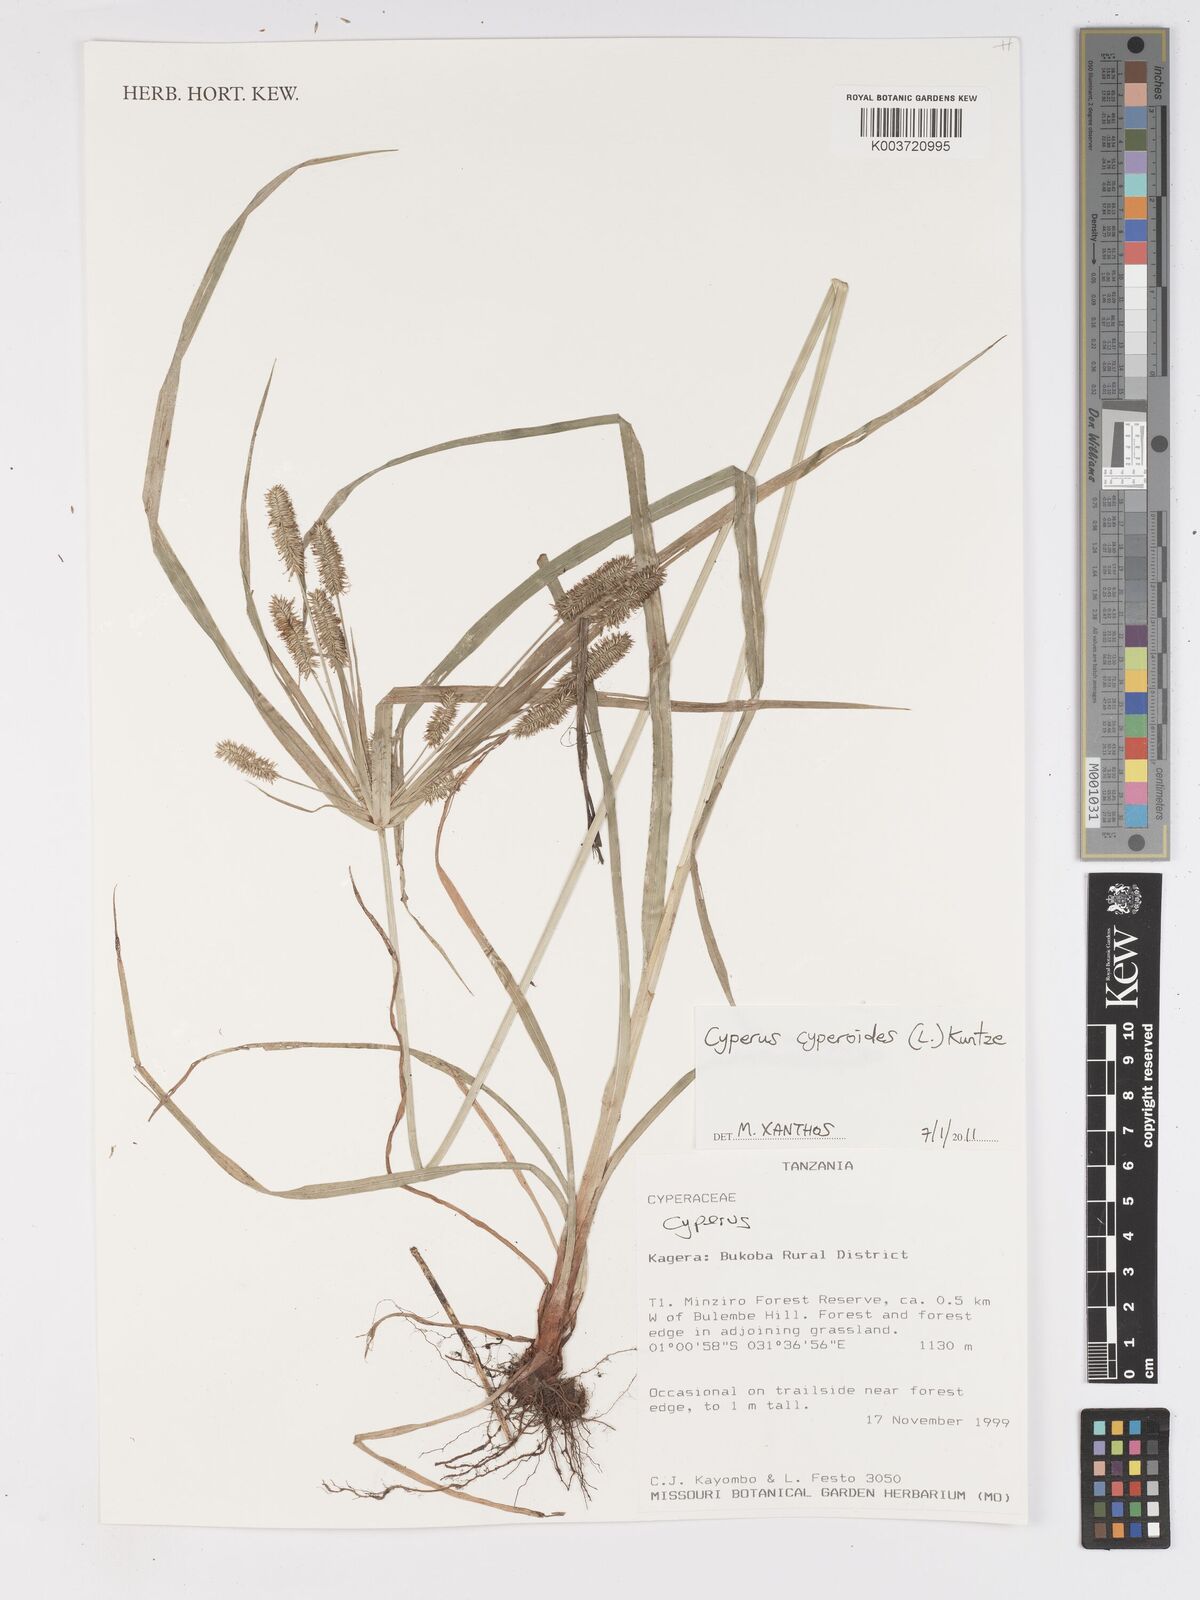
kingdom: Plantae
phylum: Tracheophyta
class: Liliopsida
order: Poales
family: Cyperaceae
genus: Cyperus
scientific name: Cyperus
